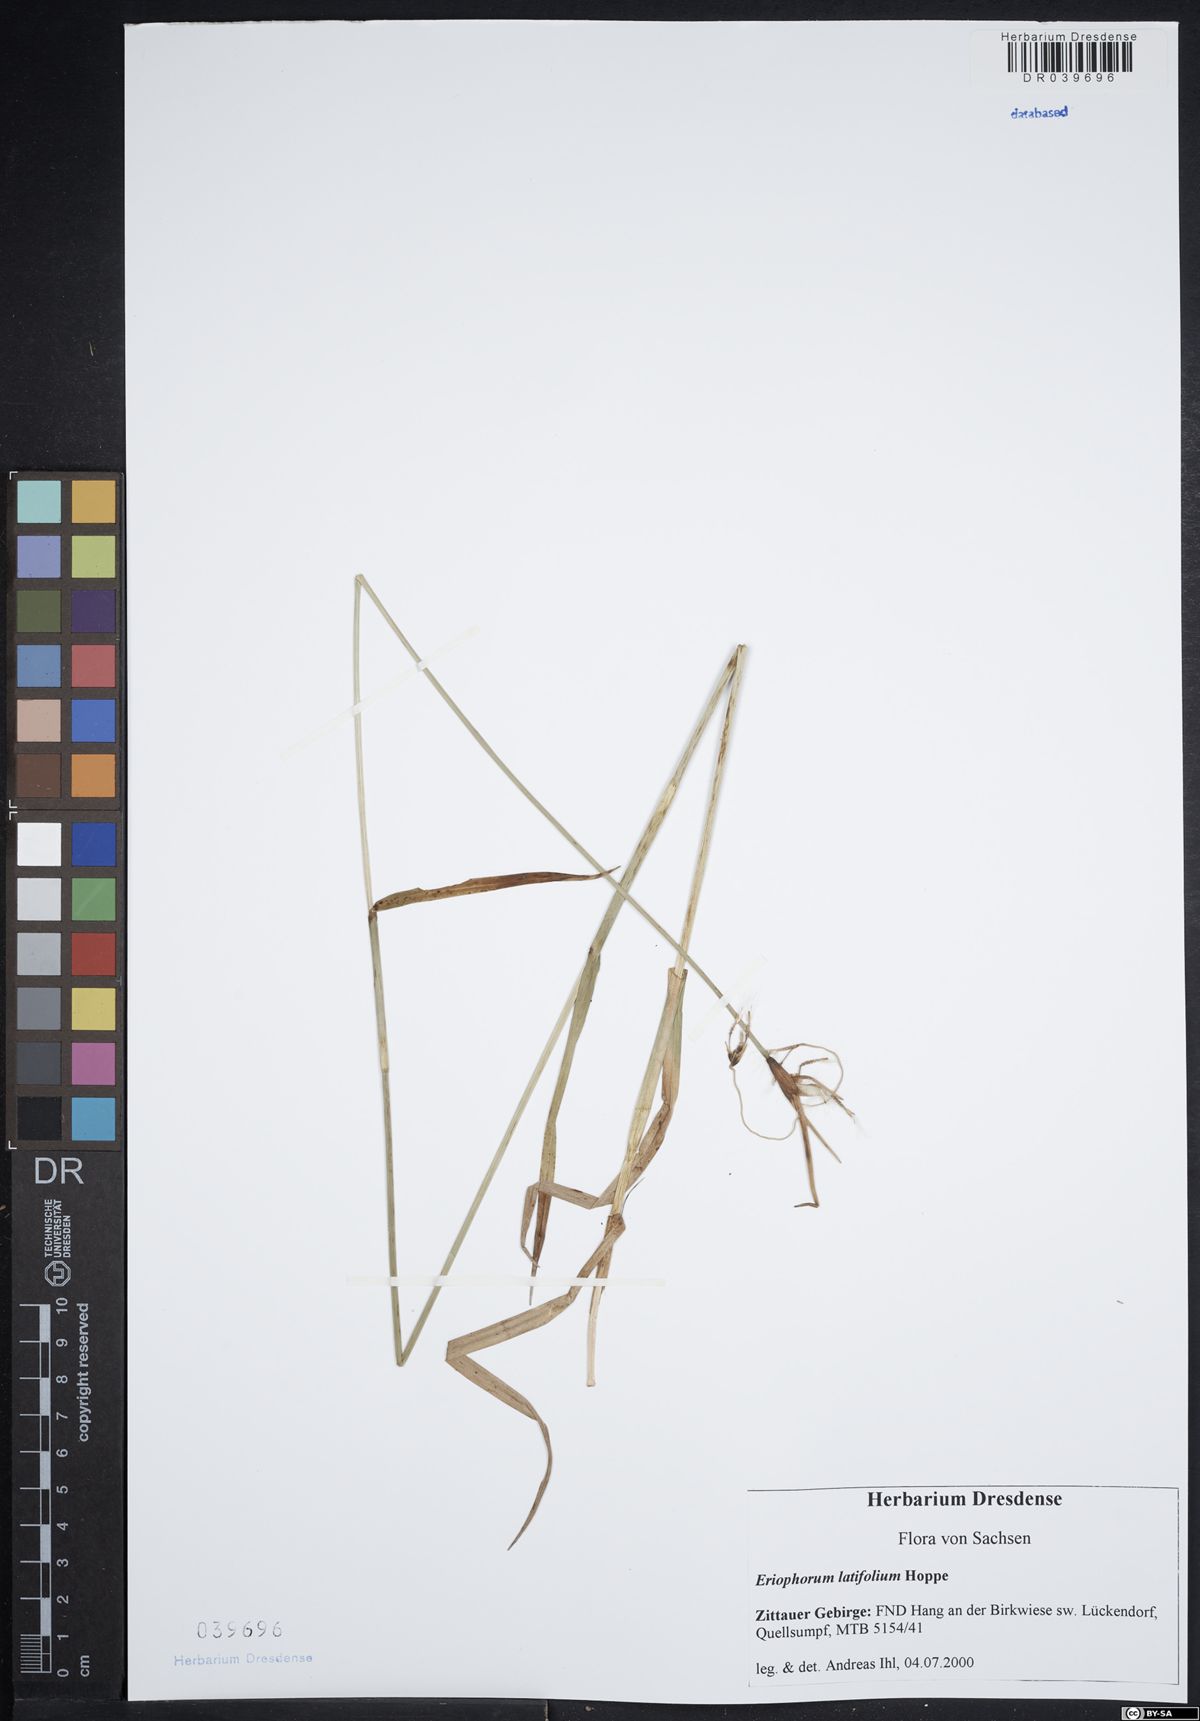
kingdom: Plantae
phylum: Tracheophyta
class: Liliopsida
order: Poales
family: Cyperaceae
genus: Eriophorum
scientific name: Eriophorum latifolium
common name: Broad-leaved cottongrass
